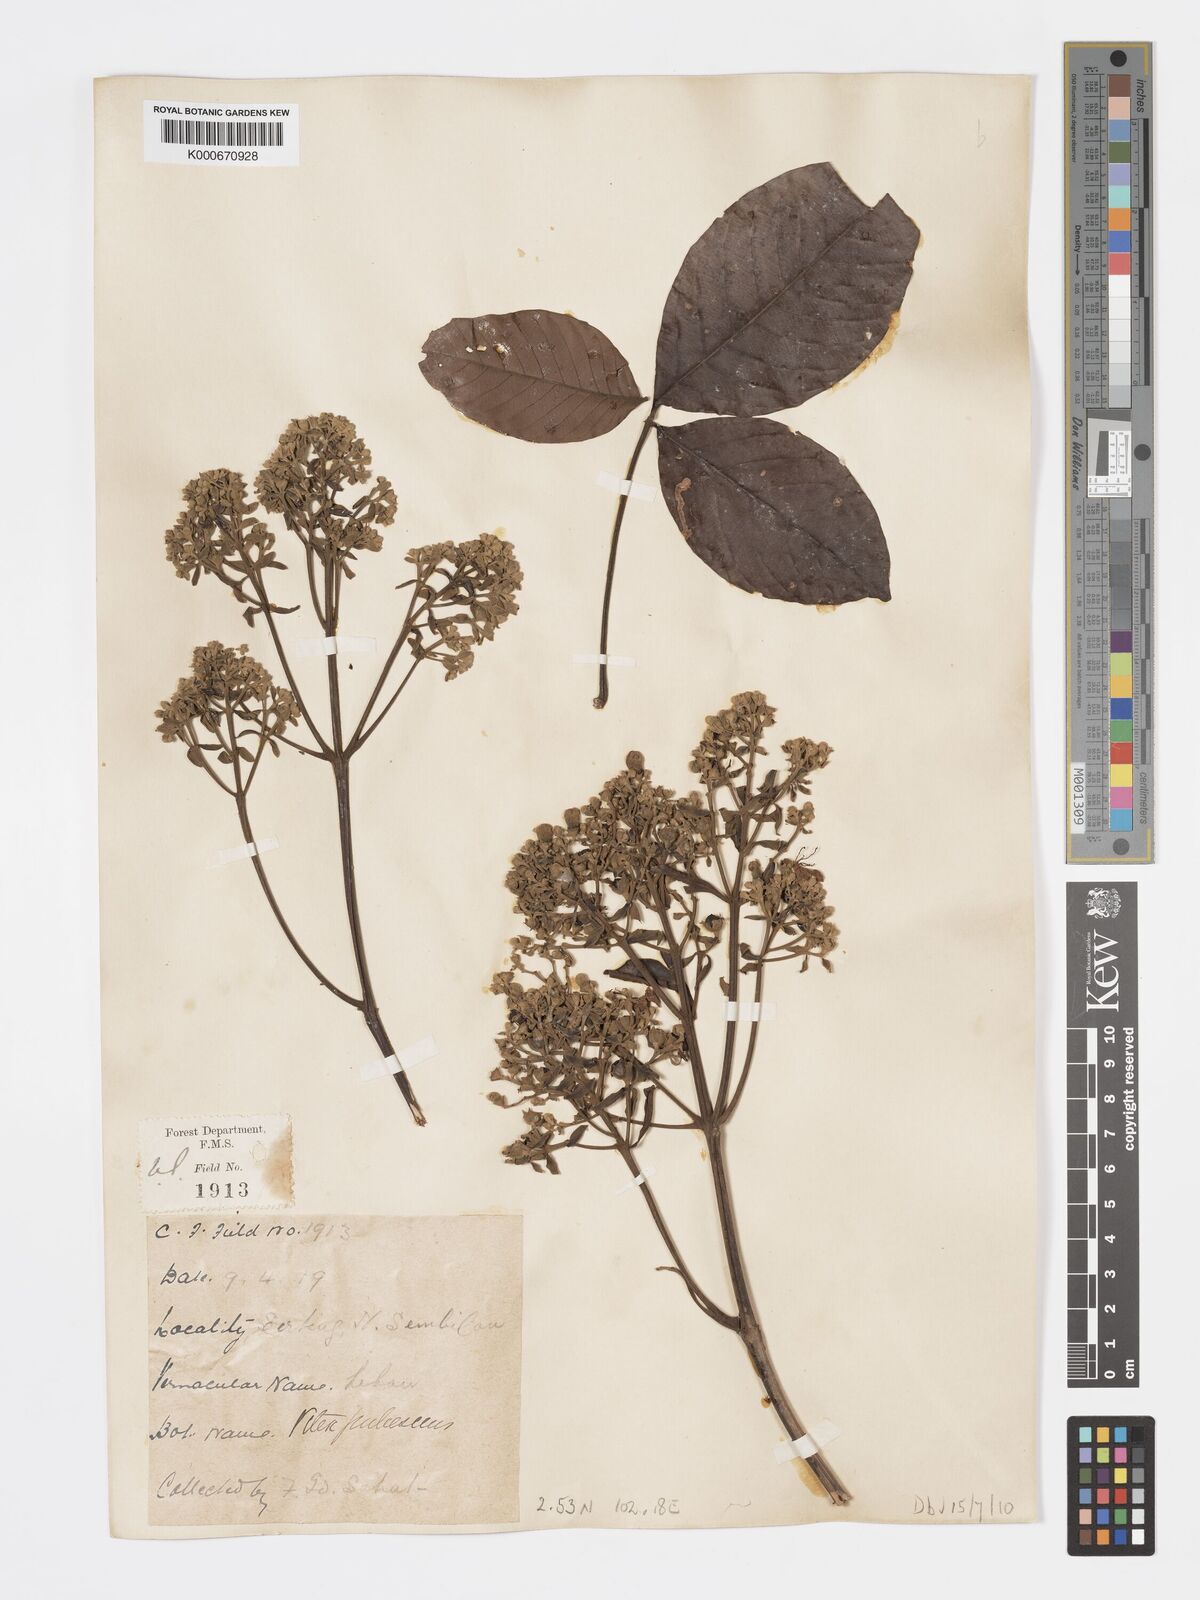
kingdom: Plantae
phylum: Tracheophyta
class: Magnoliopsida
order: Lamiales
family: Lamiaceae
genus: Vitex
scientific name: Vitex pinnata
